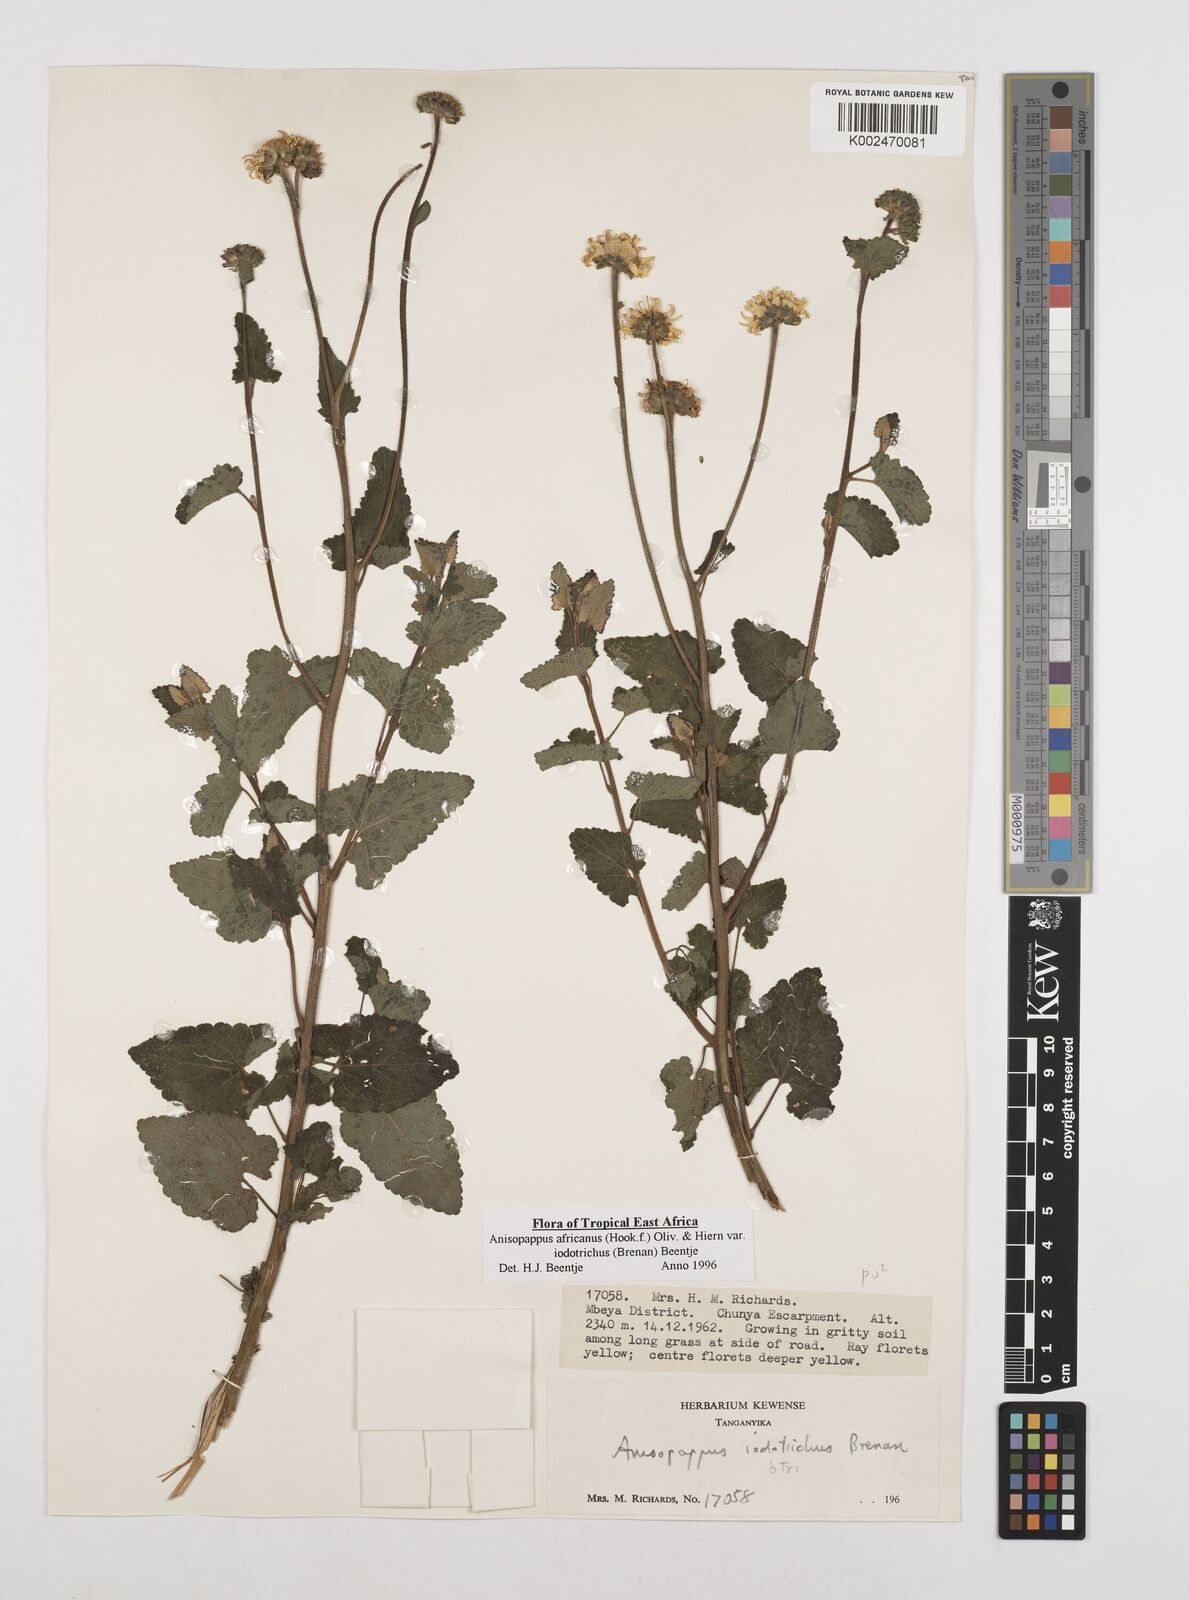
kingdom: Plantae
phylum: Tracheophyta
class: Magnoliopsida
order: Asterales
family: Asteraceae
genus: Anisopappus
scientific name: Anisopappus buchwaldii
